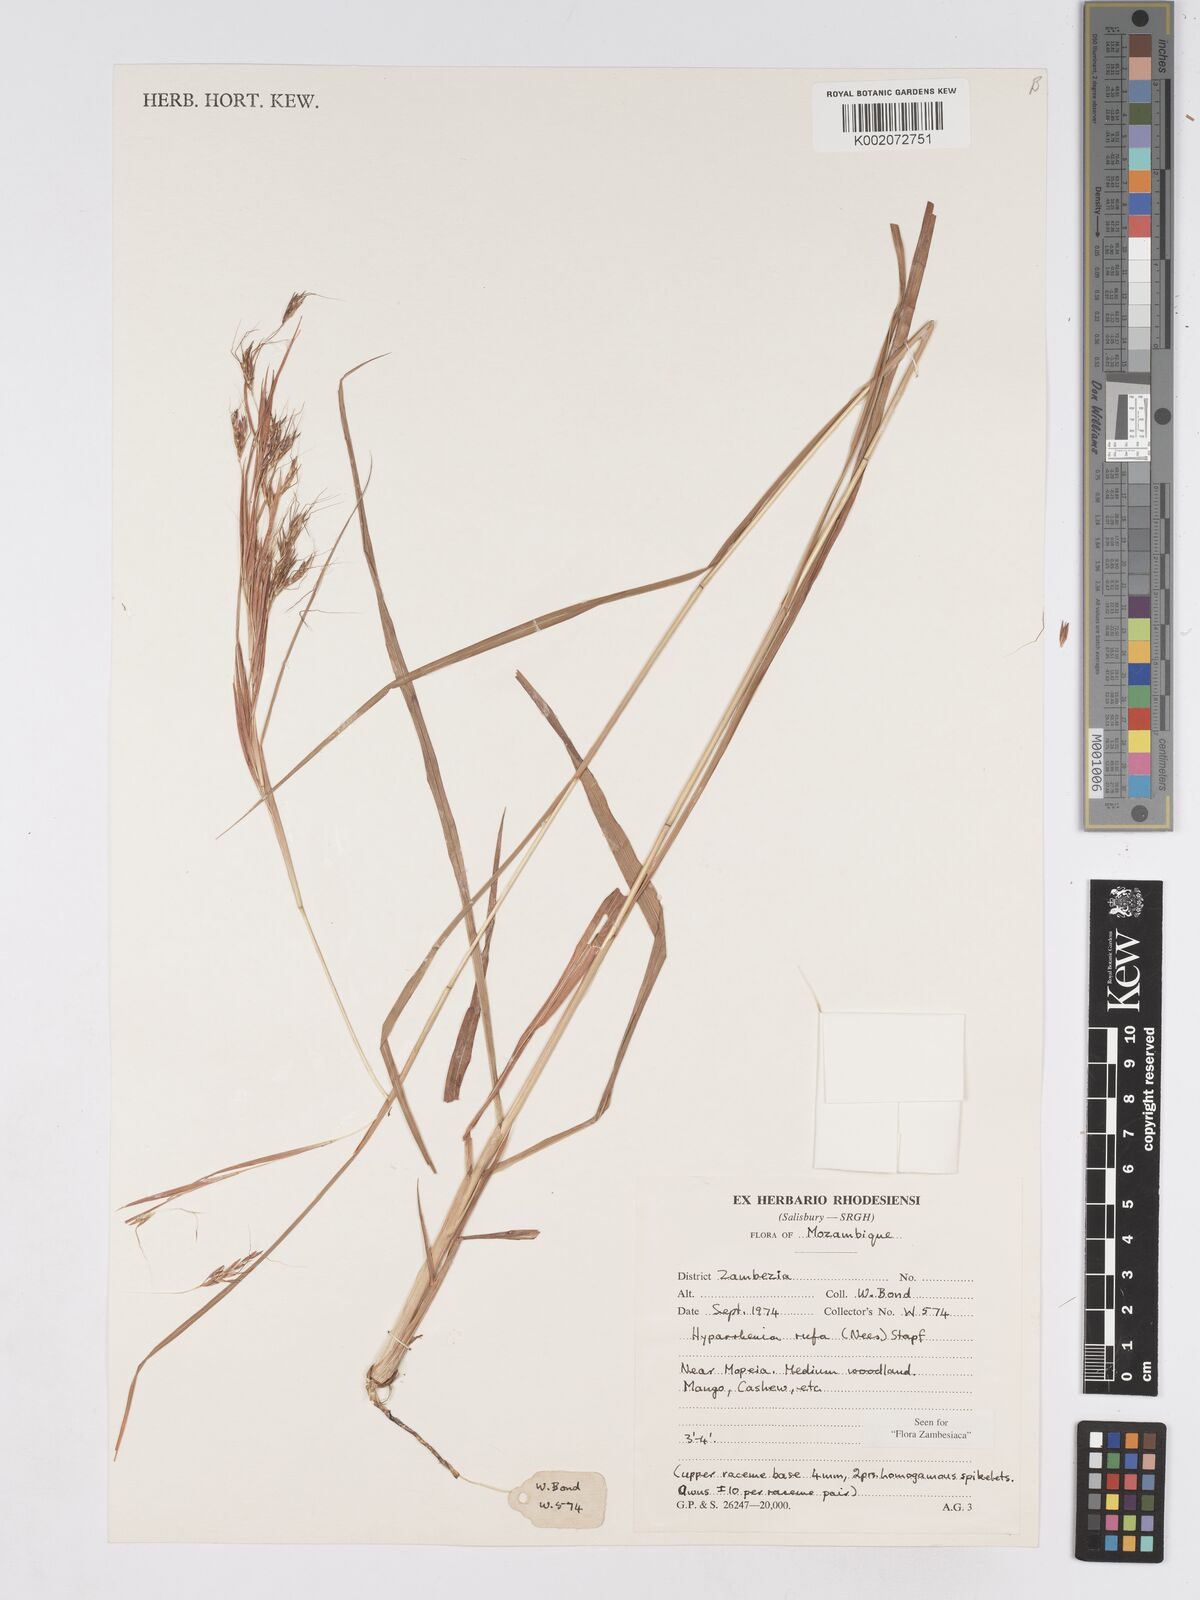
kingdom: Plantae
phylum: Tracheophyta
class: Liliopsida
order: Poales
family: Poaceae
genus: Hyparrhenia
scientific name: Hyparrhenia rufa
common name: Jaraguagrass
